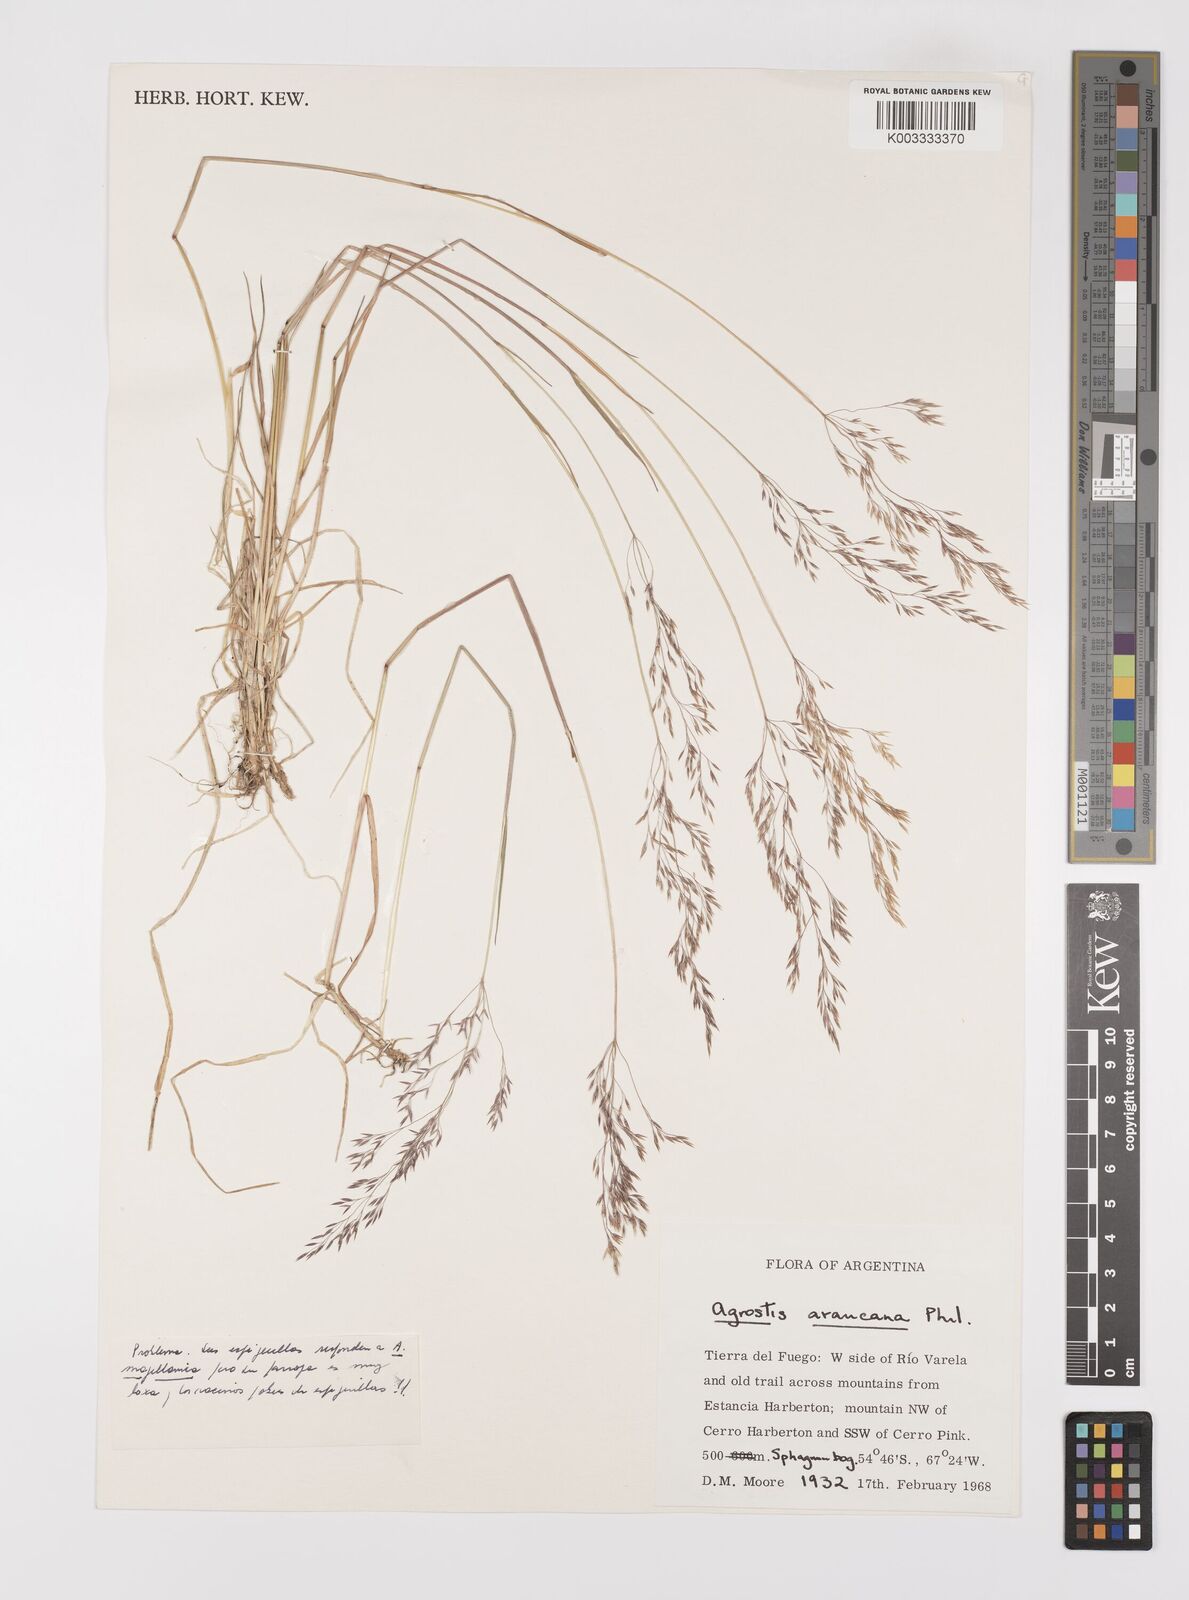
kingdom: Plantae
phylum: Tracheophyta
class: Liliopsida
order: Poales
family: Poaceae
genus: Polypogon
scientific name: Polypogon magellanicus
